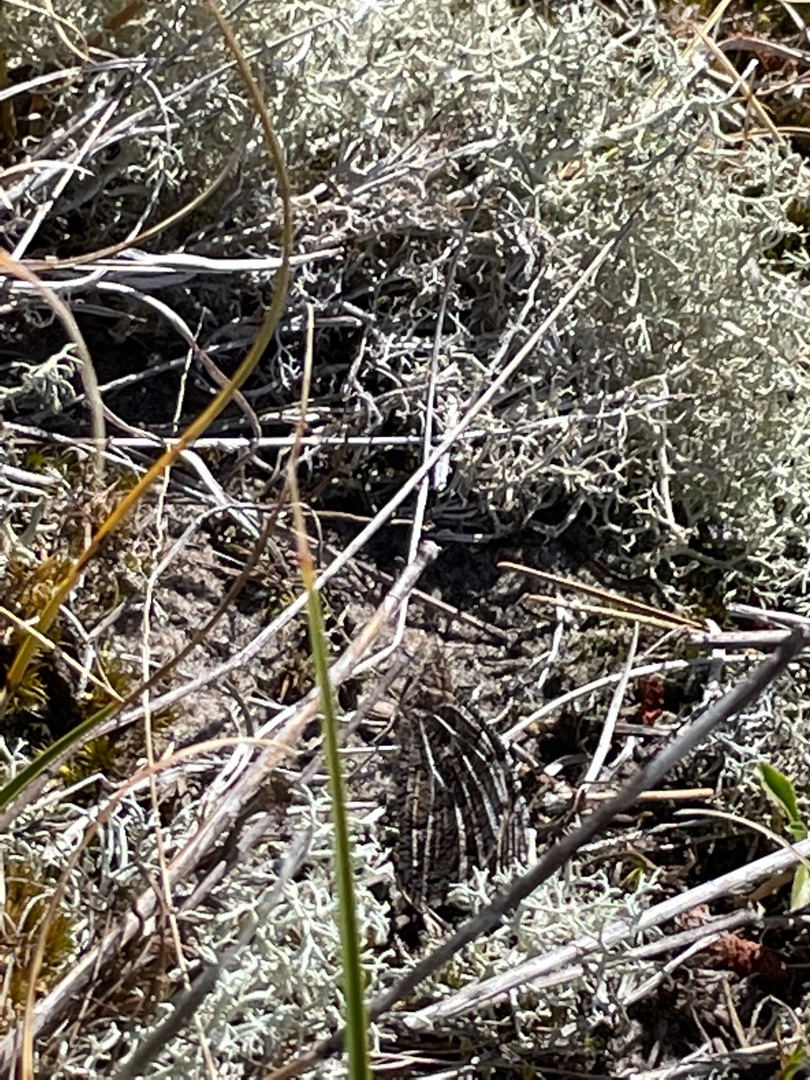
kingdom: Animalia
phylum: Arthropoda
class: Insecta
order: Lepidoptera
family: Nymphalidae
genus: Hipparchia
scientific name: Hipparchia semele
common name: Sandrandøje
